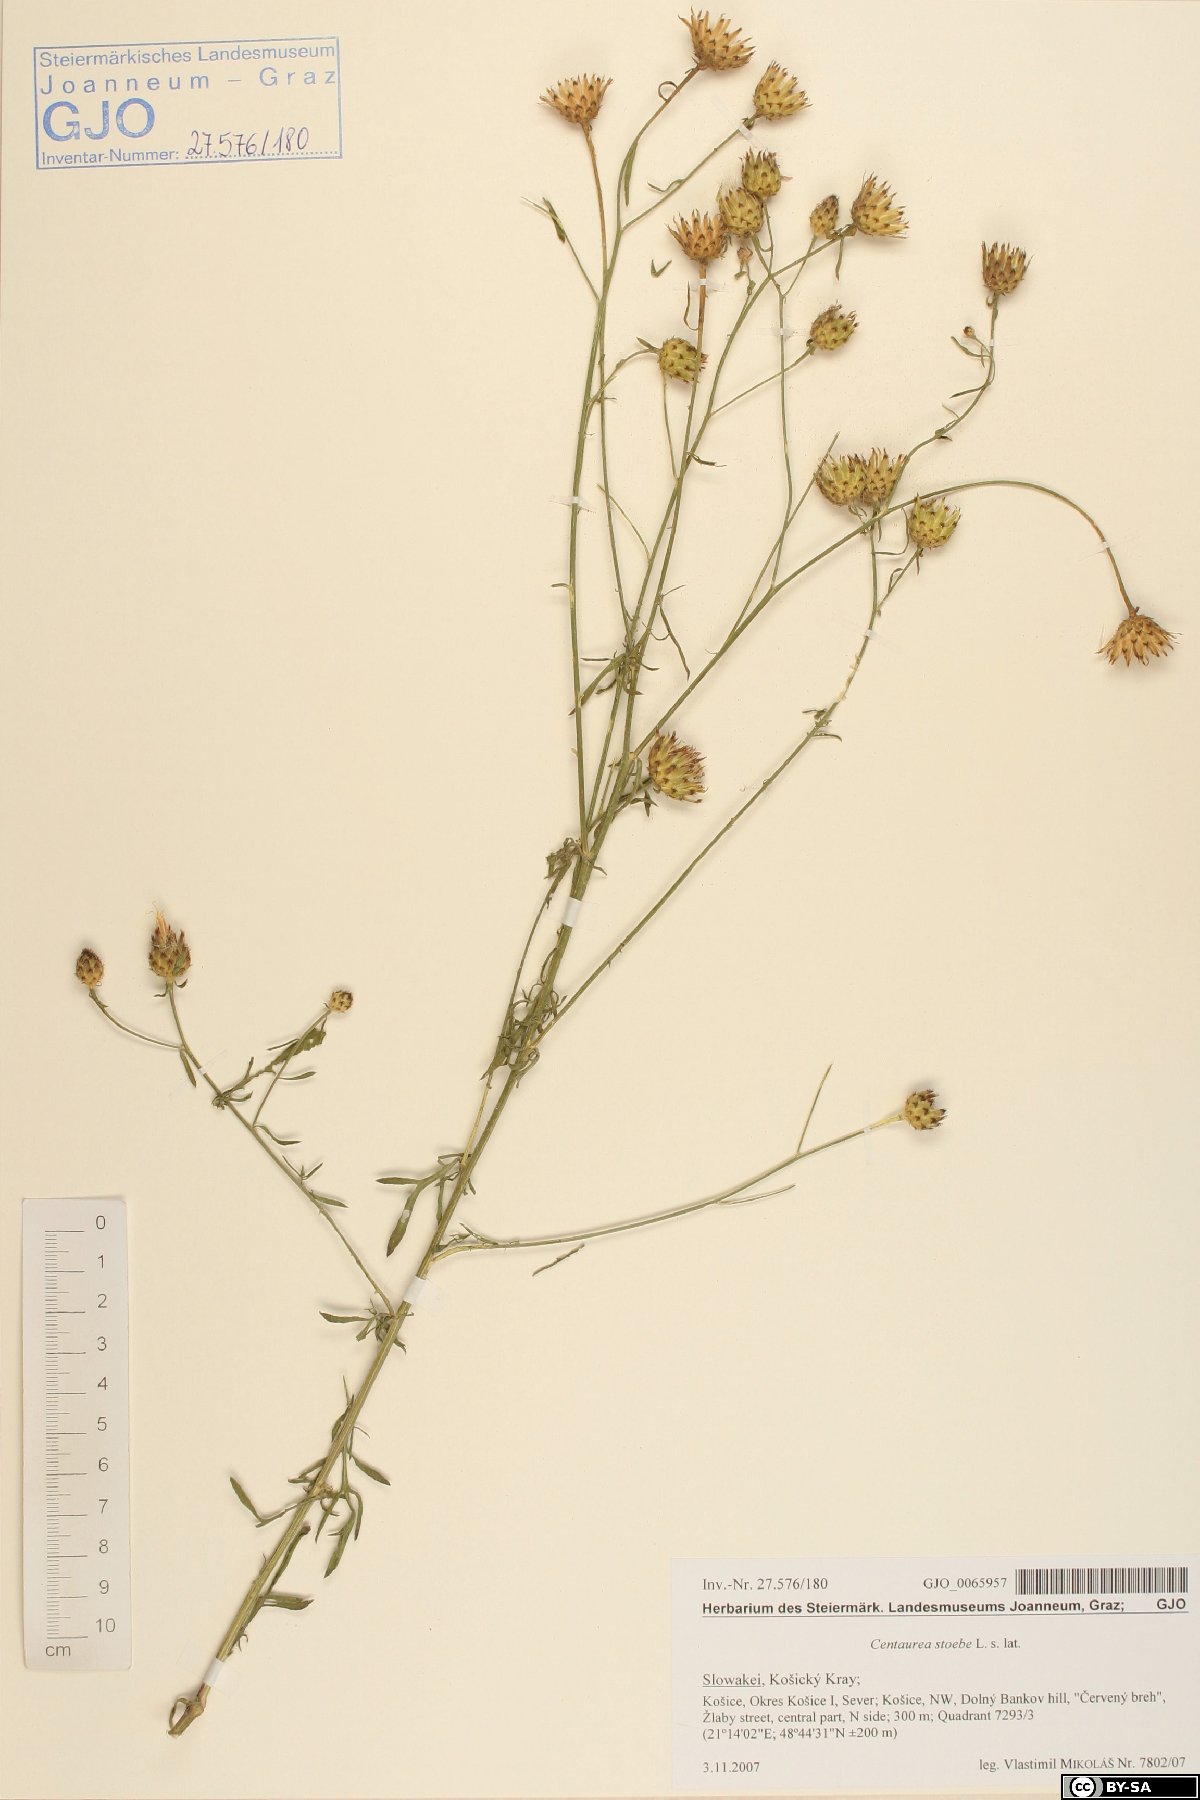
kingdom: Plantae
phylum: Tracheophyta
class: Magnoliopsida
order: Asterales
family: Asteraceae
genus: Centaurea
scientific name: Centaurea stoebe
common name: Spotted knapweed
